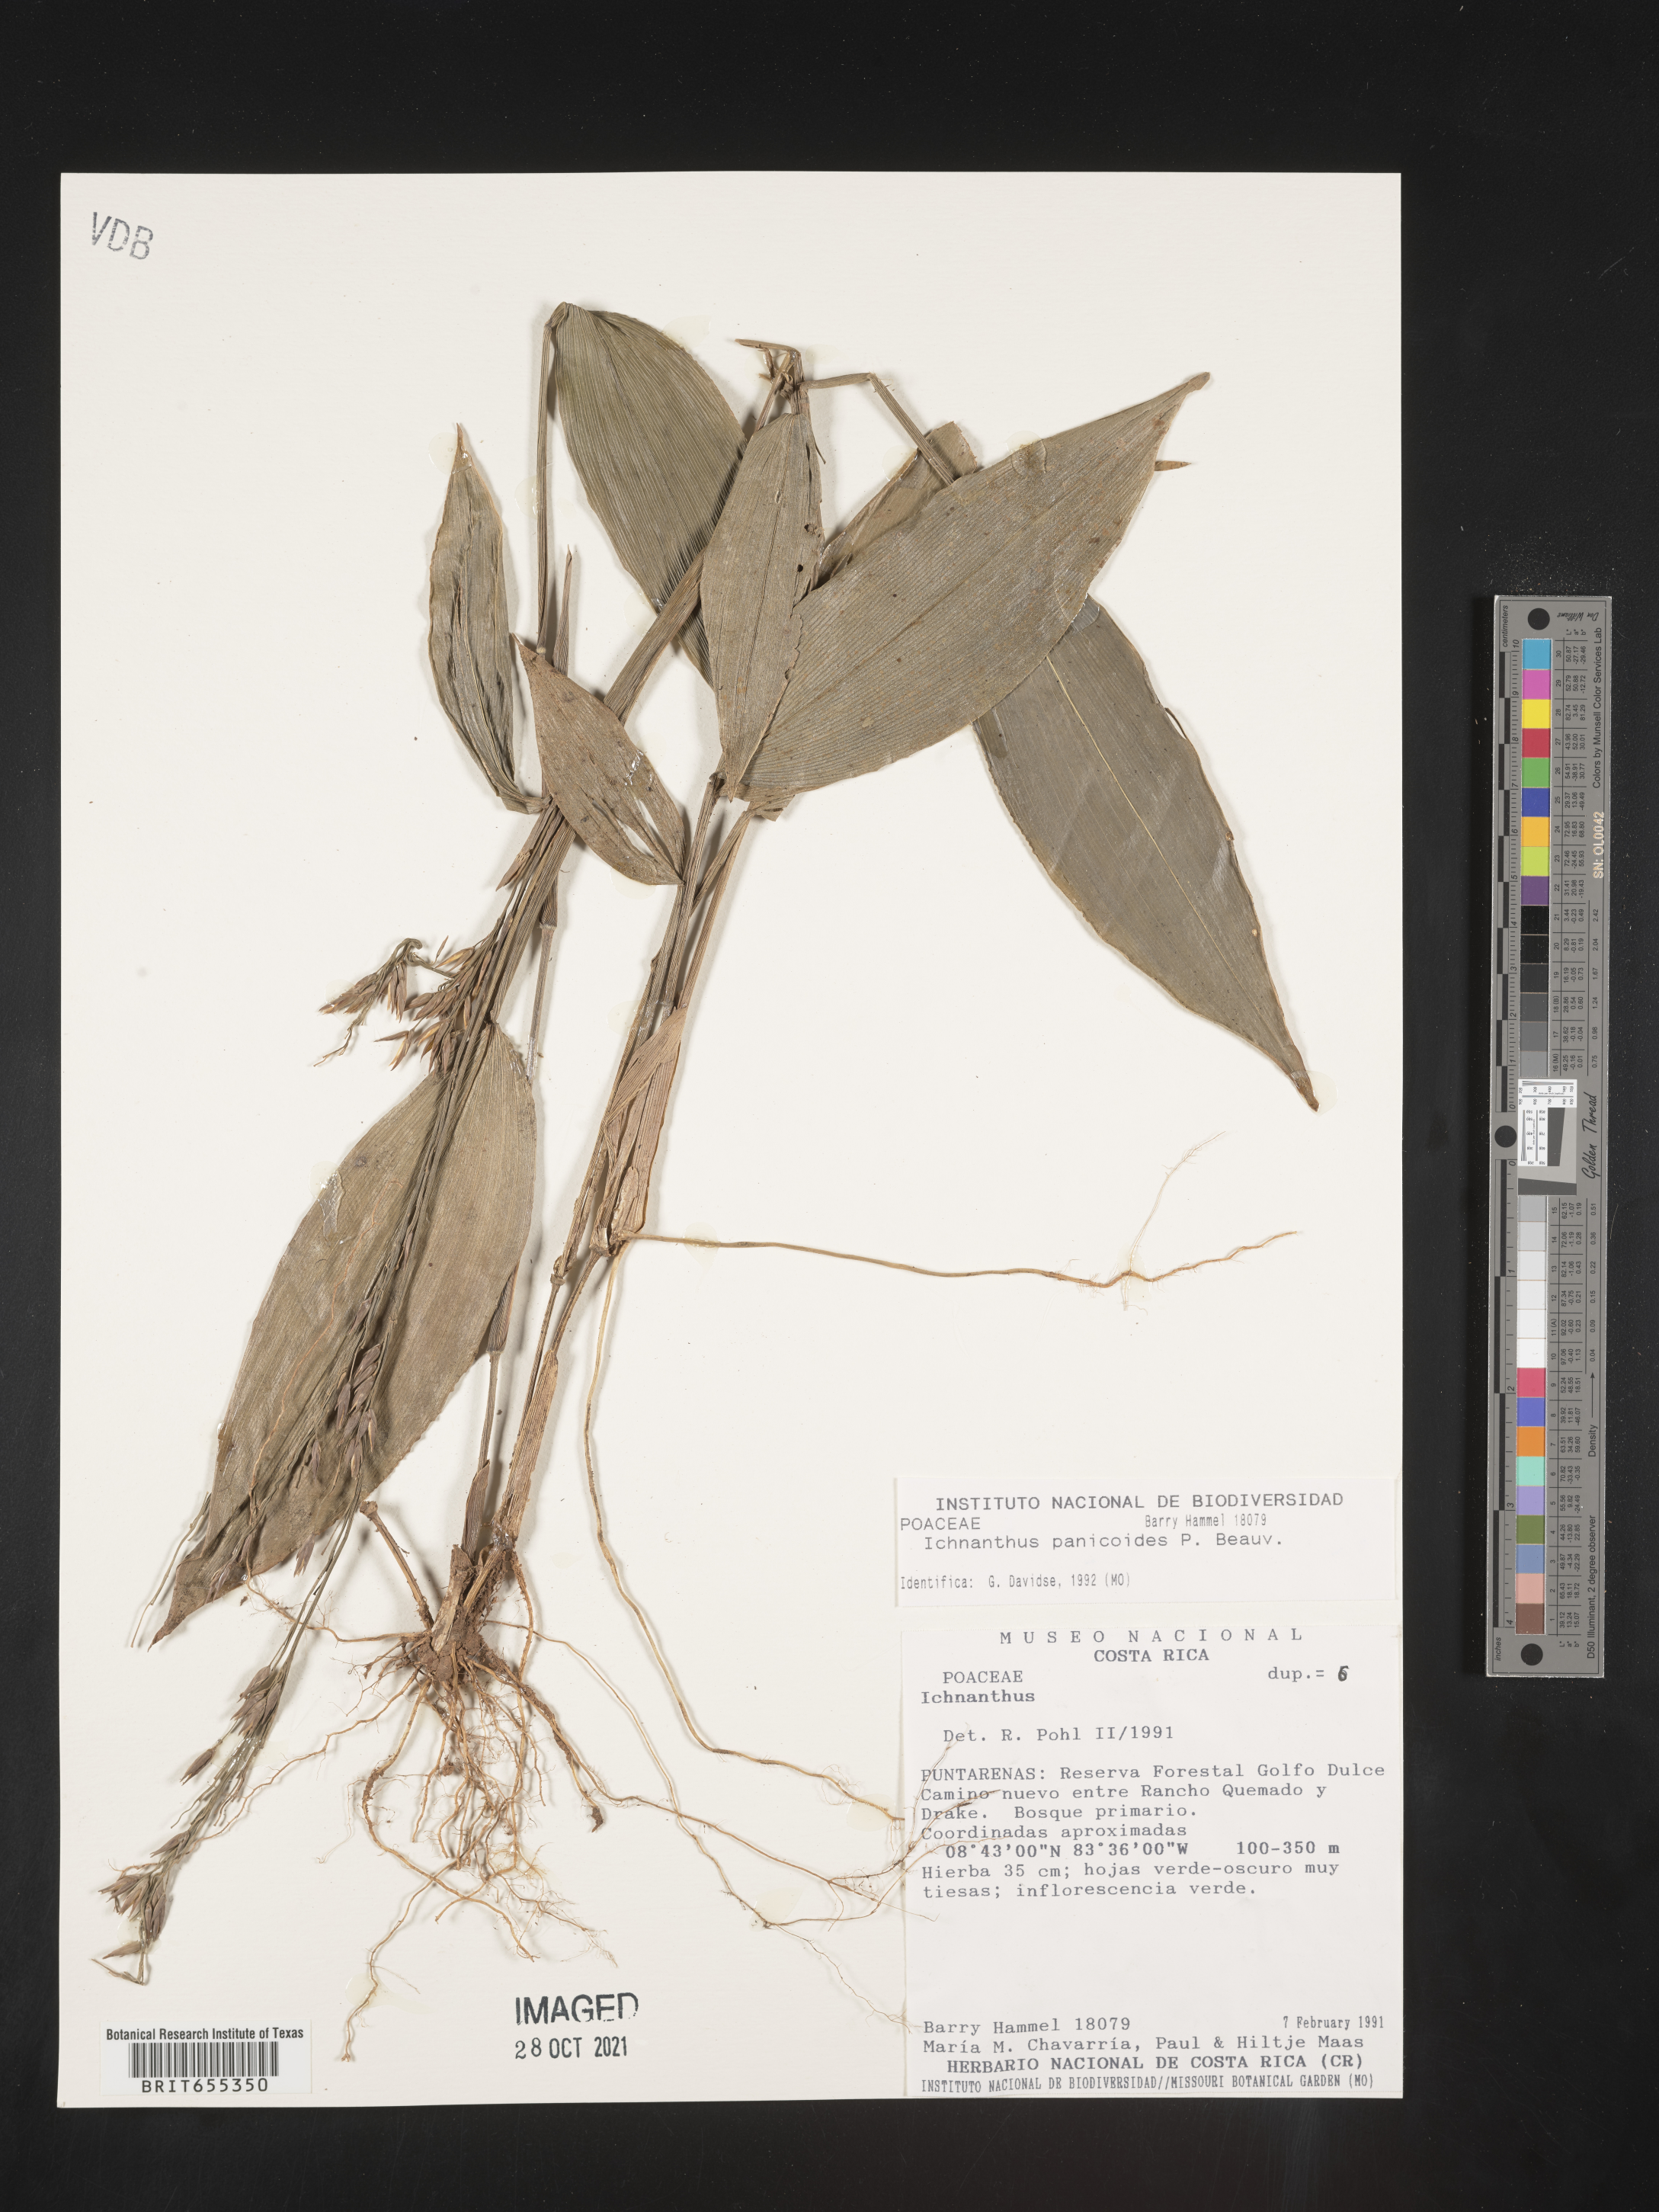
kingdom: Plantae
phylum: Tracheophyta
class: Liliopsida
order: Poales
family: Poaceae
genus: Ichnanthus
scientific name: Ichnanthus
